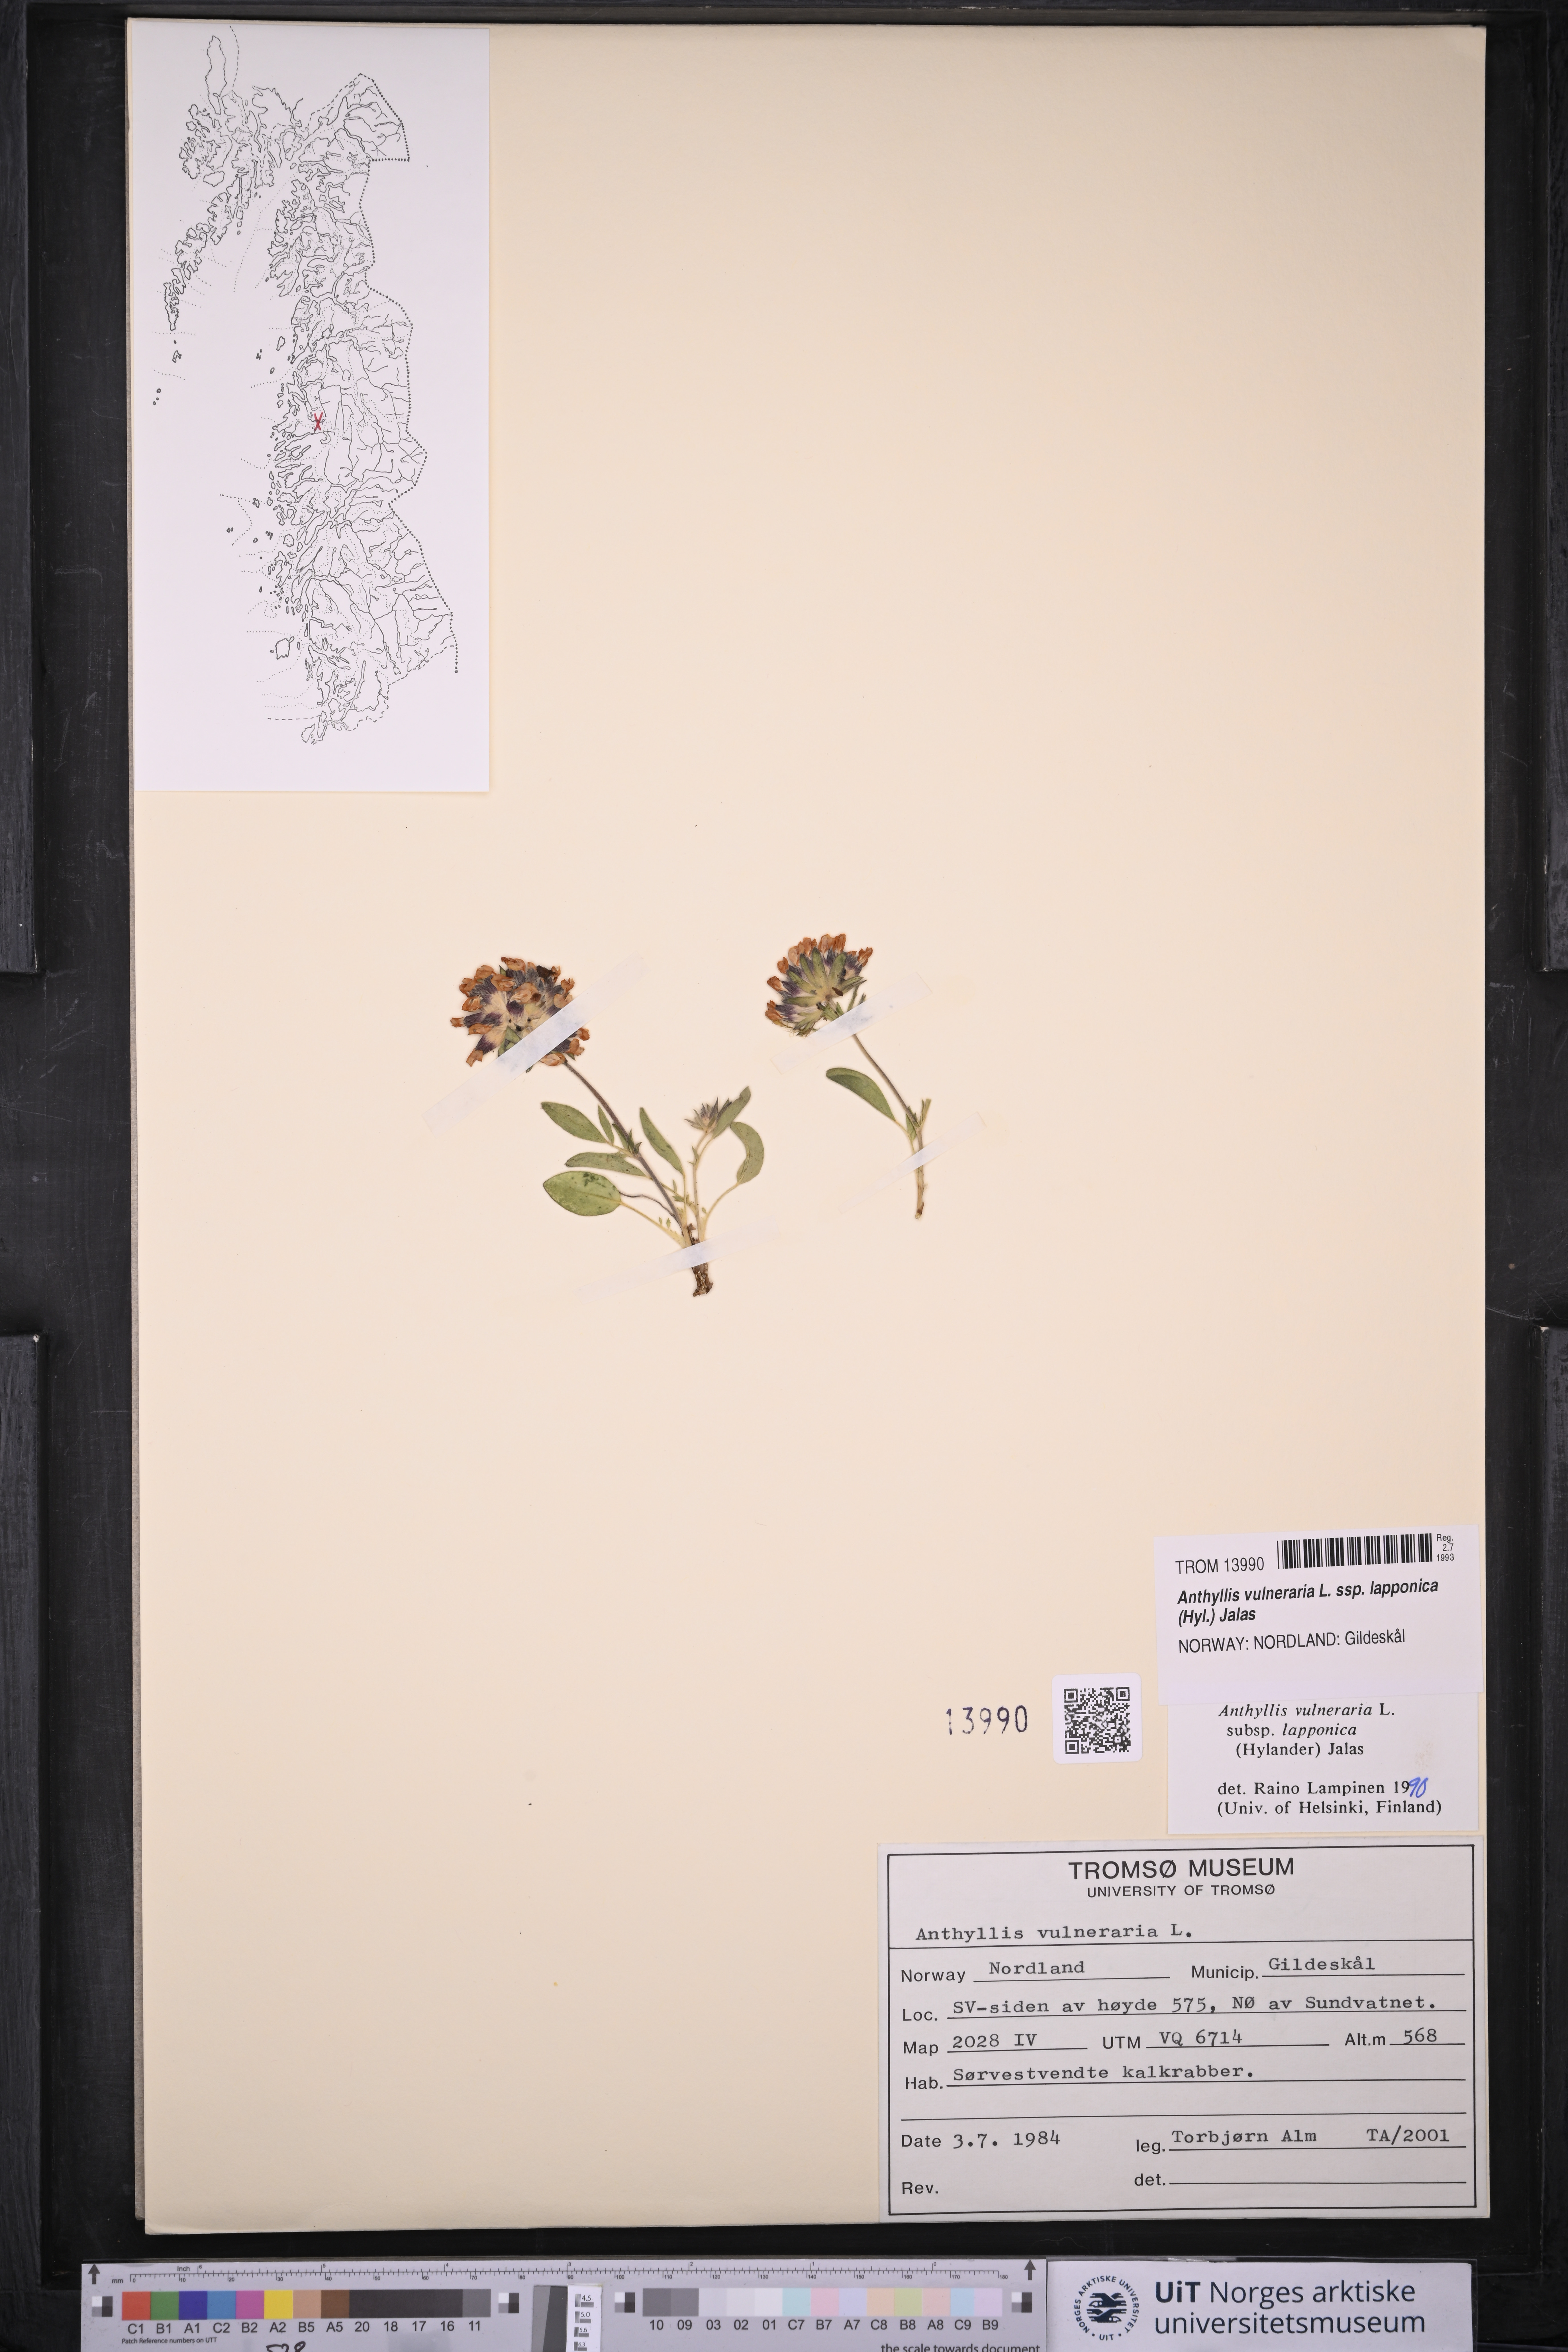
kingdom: Plantae
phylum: Tracheophyta
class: Magnoliopsida
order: Fabales
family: Fabaceae
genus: Anthyllis
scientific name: Anthyllis vulneraria
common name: Kidney vetch
